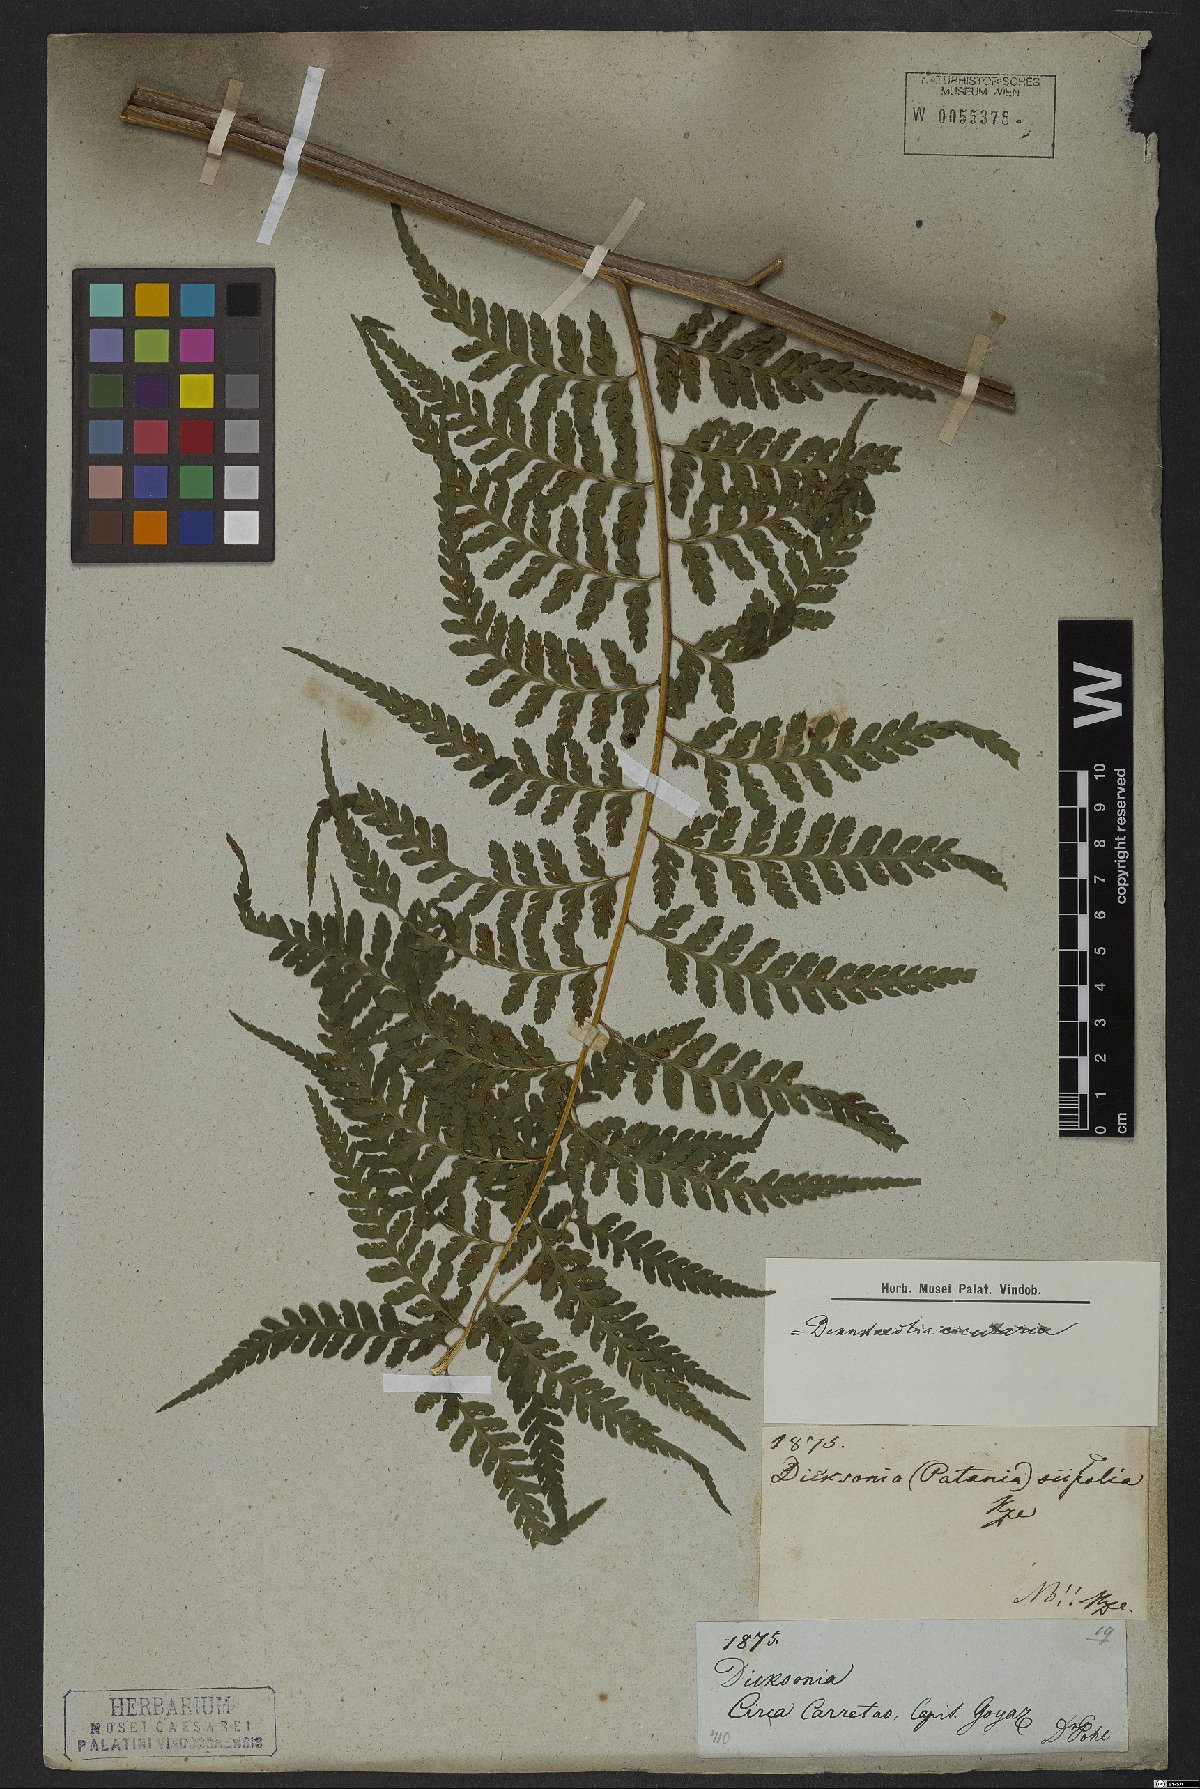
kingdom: Plantae
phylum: Tracheophyta
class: Polypodiopsida
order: Polypodiales
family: Dennstaedtiaceae
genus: Dennstaedtia
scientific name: Dennstaedtia cicutaria
